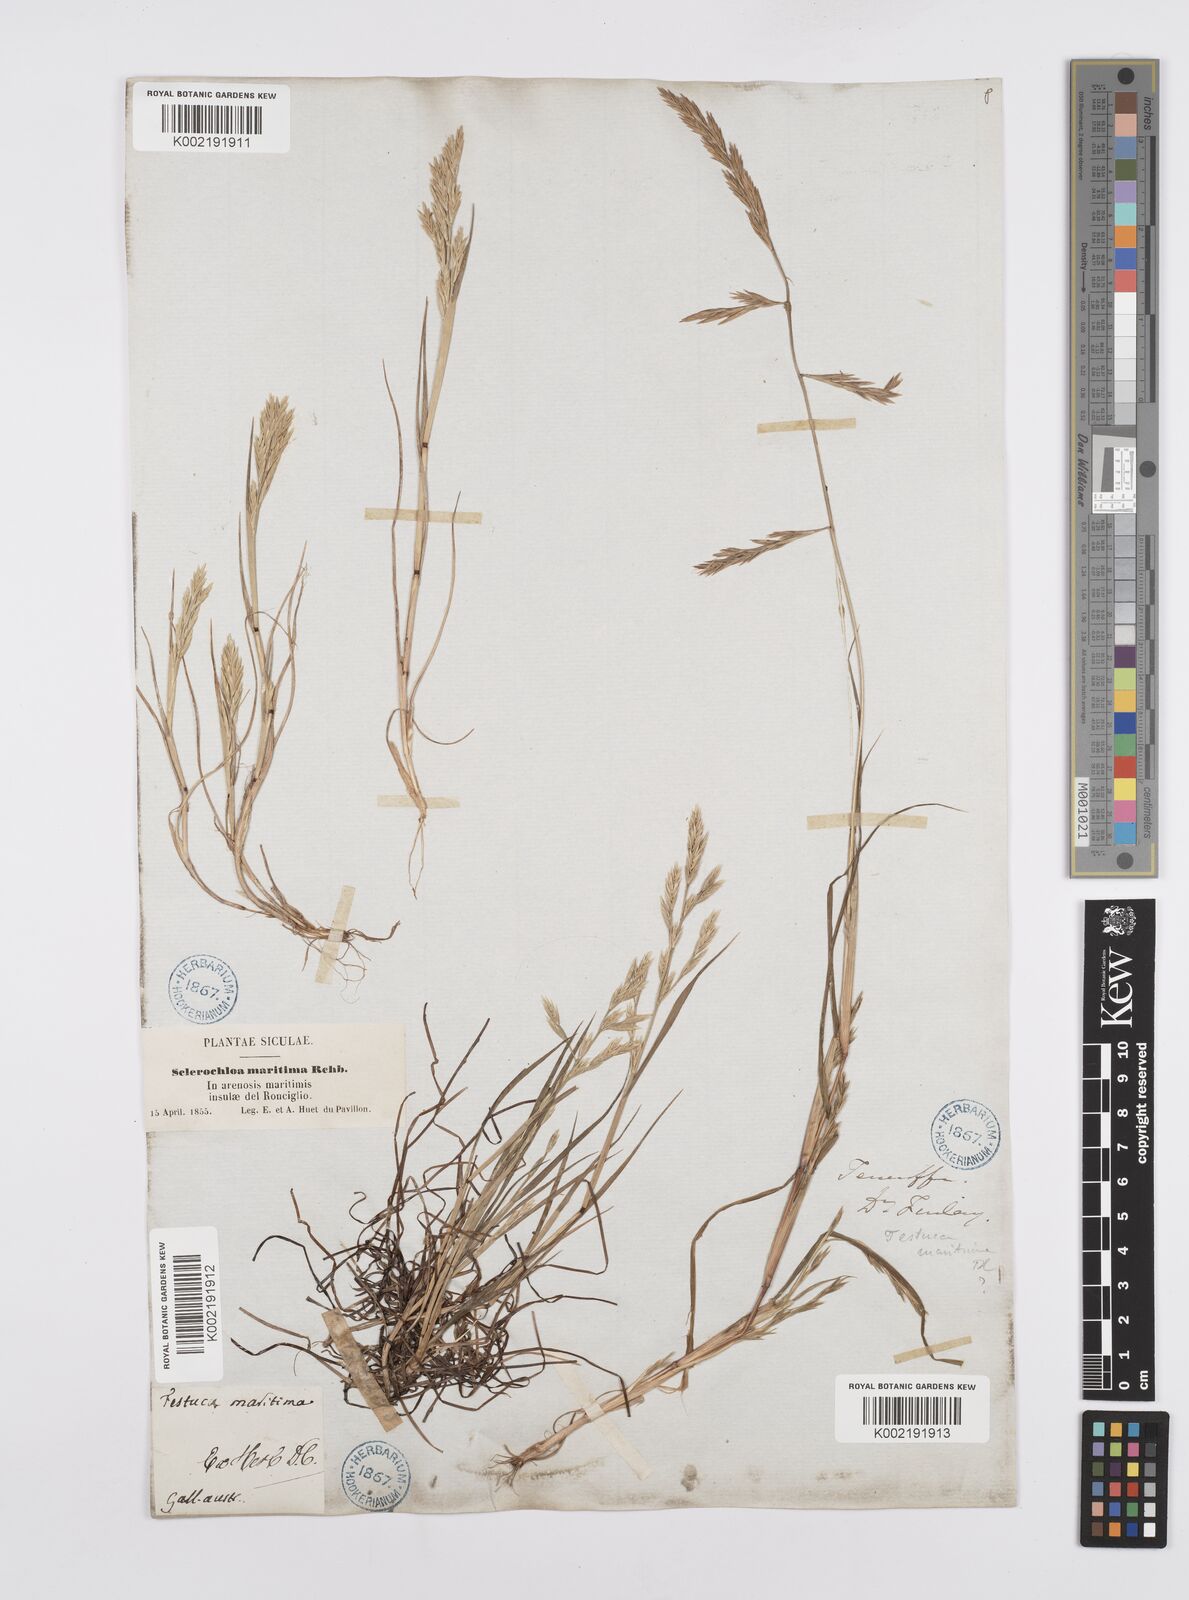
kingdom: Plantae
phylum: Tracheophyta
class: Liliopsida
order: Poales
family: Poaceae
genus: Cutandia
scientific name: Cutandia maritima
